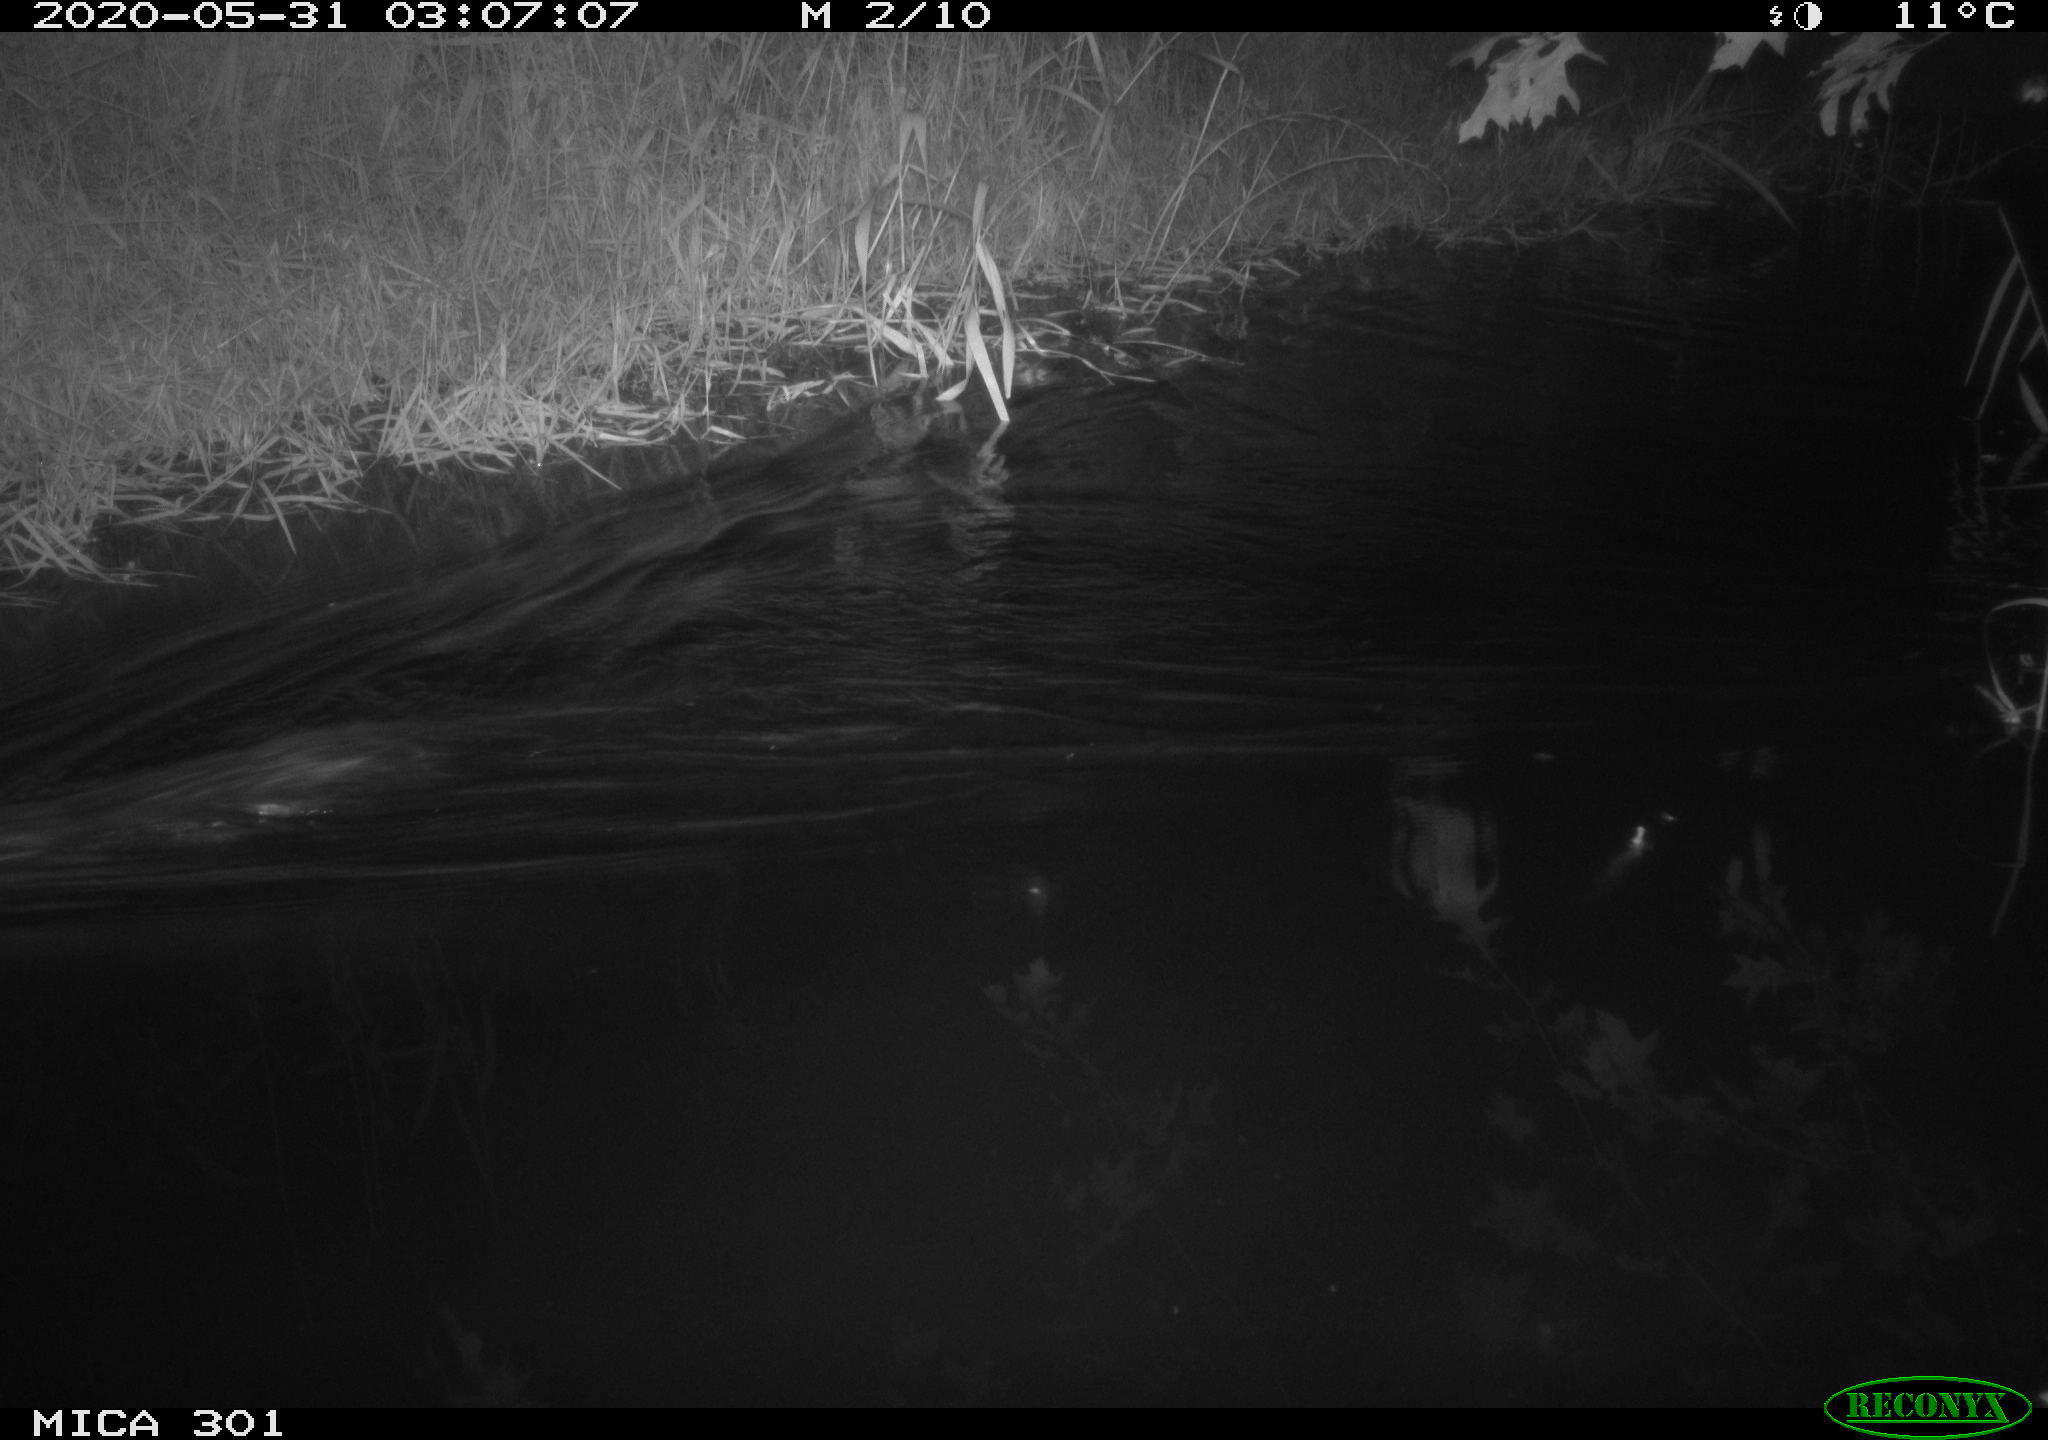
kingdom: Animalia
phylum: Chordata
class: Mammalia
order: Rodentia
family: Castoridae
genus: Castor
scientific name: Castor fiber
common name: Eurasian beaver
